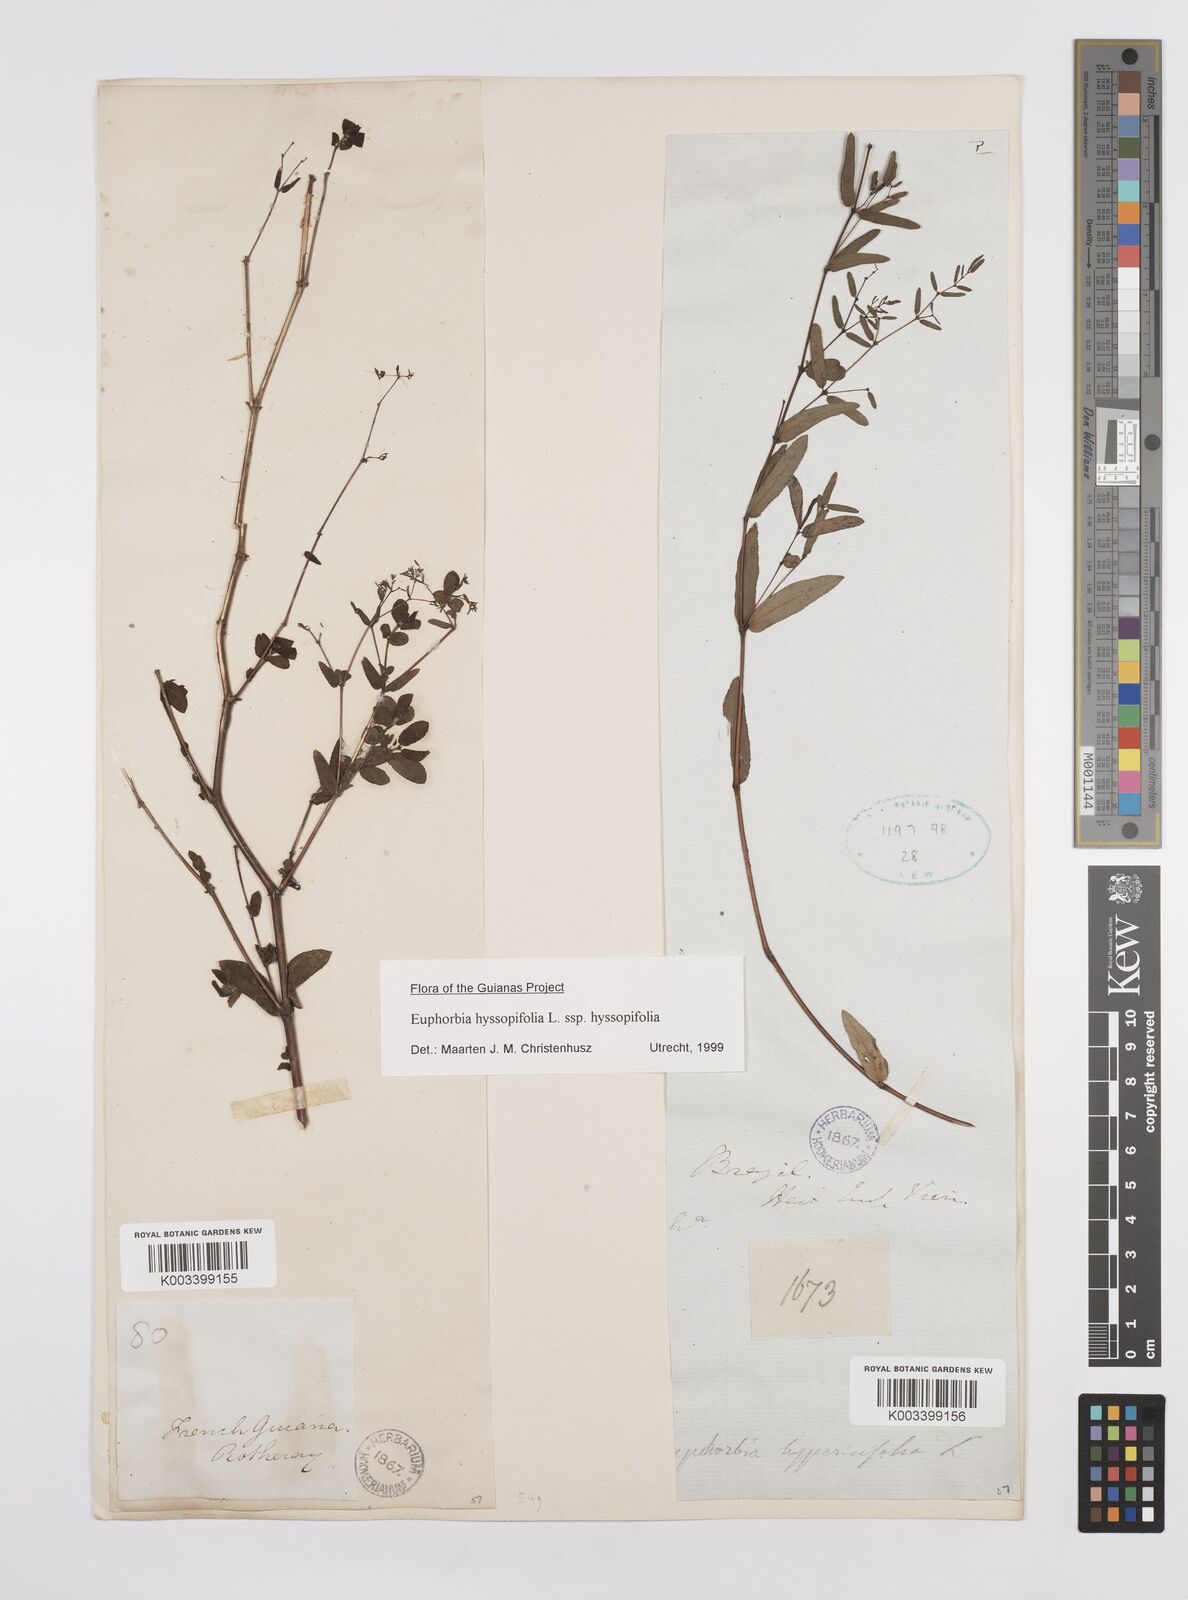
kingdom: Plantae
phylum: Tracheophyta
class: Magnoliopsida
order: Malpighiales
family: Euphorbiaceae
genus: Euphorbia
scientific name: Euphorbia hyssopifolia
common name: Hyssopleaf sandmat
